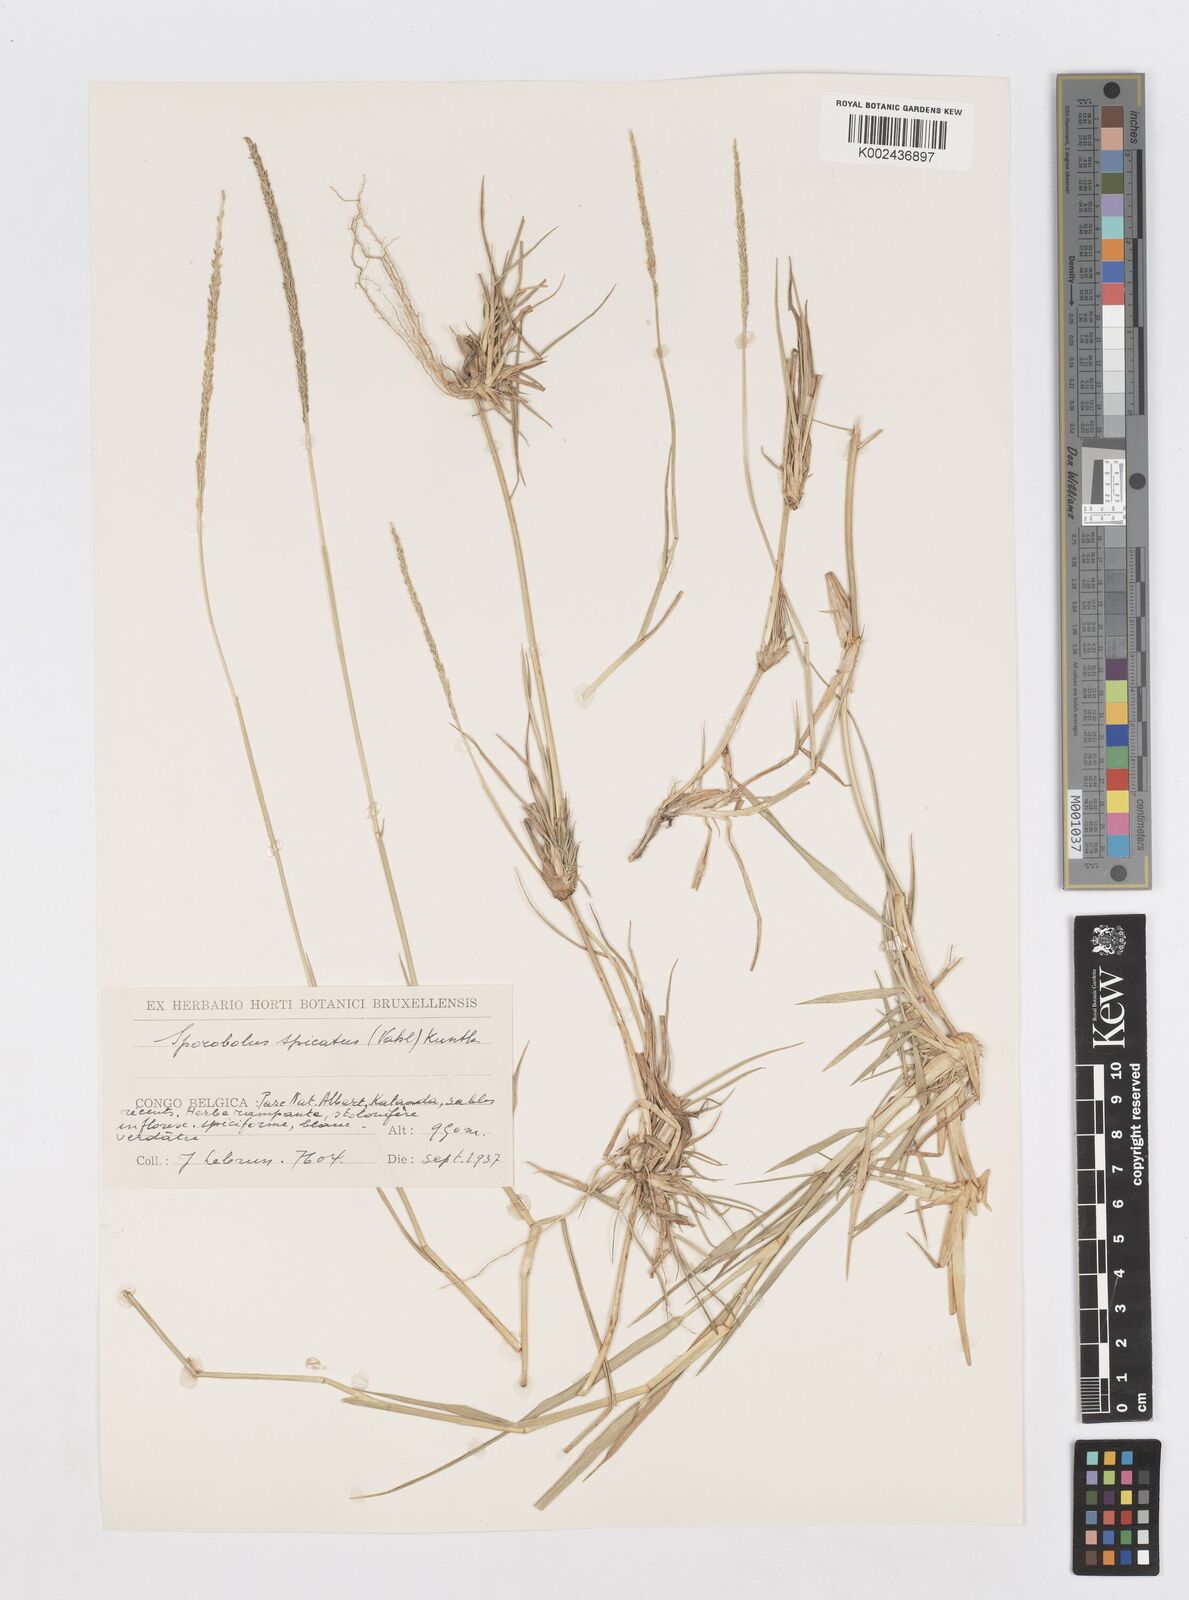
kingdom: Plantae
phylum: Tracheophyta
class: Liliopsida
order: Poales
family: Poaceae
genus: Sporobolus
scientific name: Sporobolus spicatus
